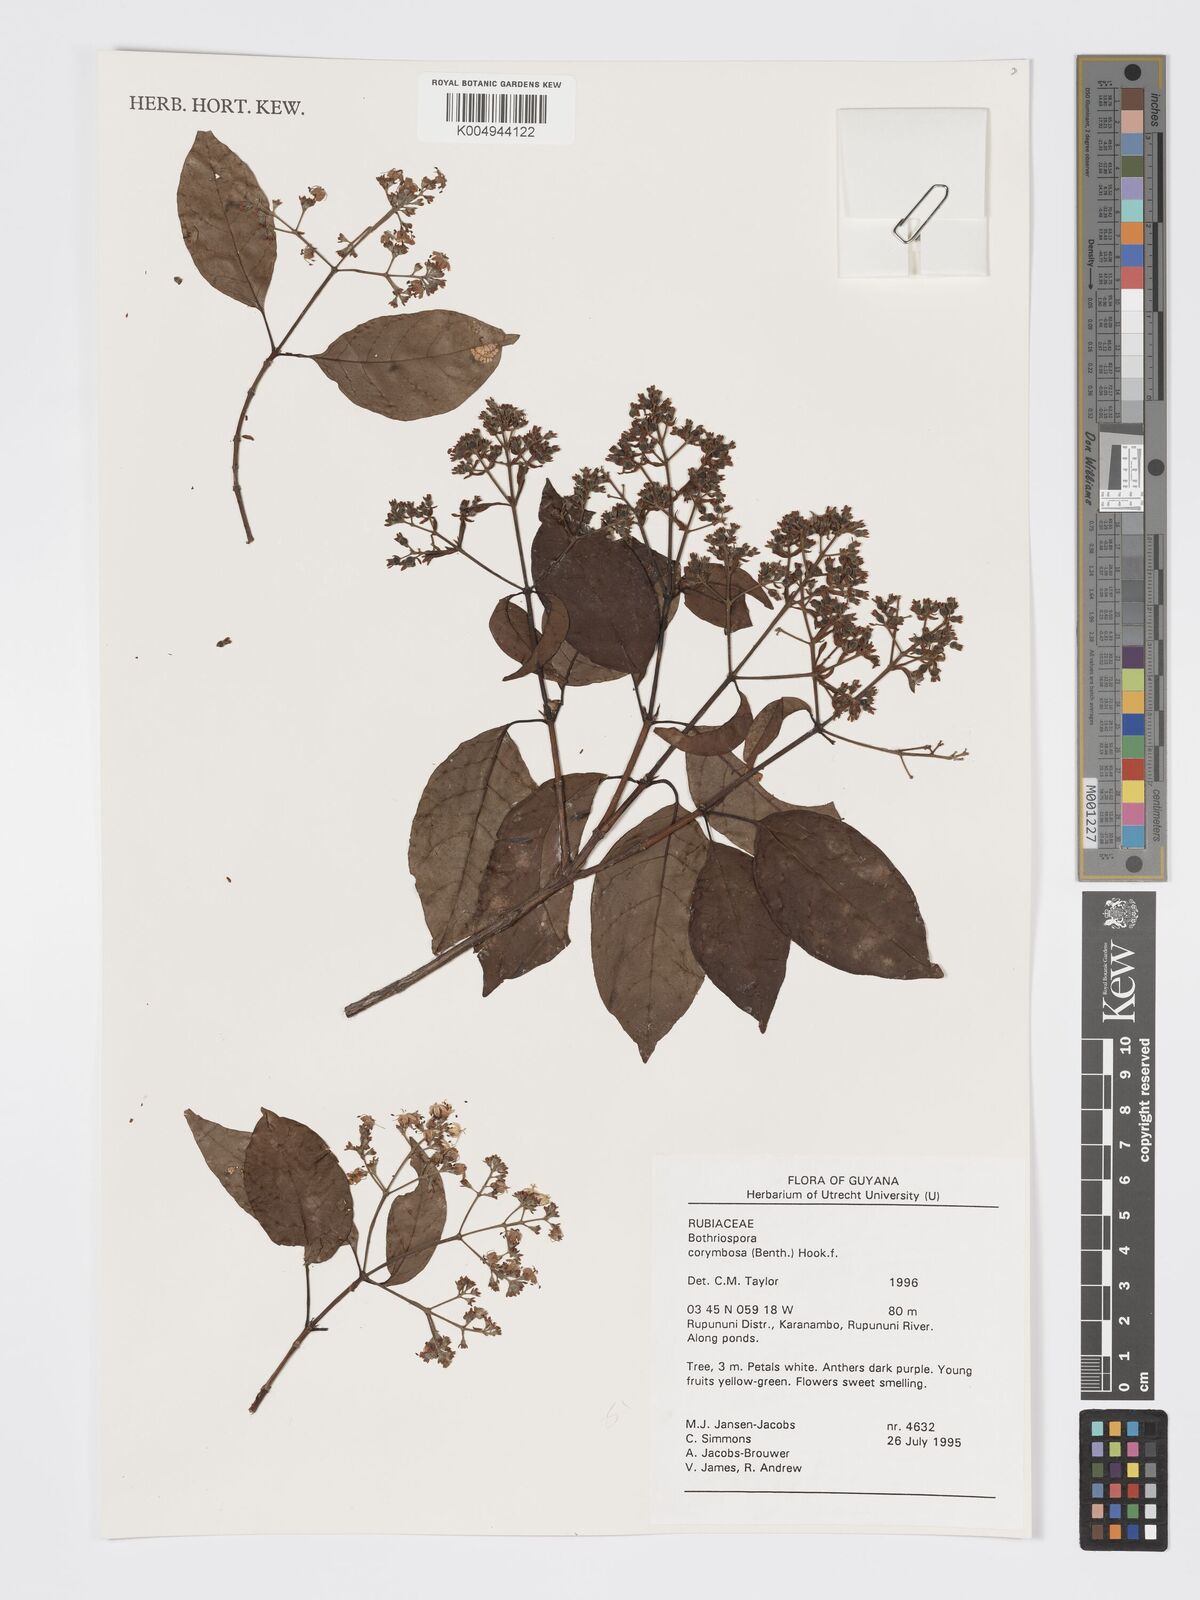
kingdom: Plantae
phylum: Tracheophyta
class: Magnoliopsida
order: Gentianales
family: Rubiaceae
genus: Bothriospora
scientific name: Bothriospora corymbosa
